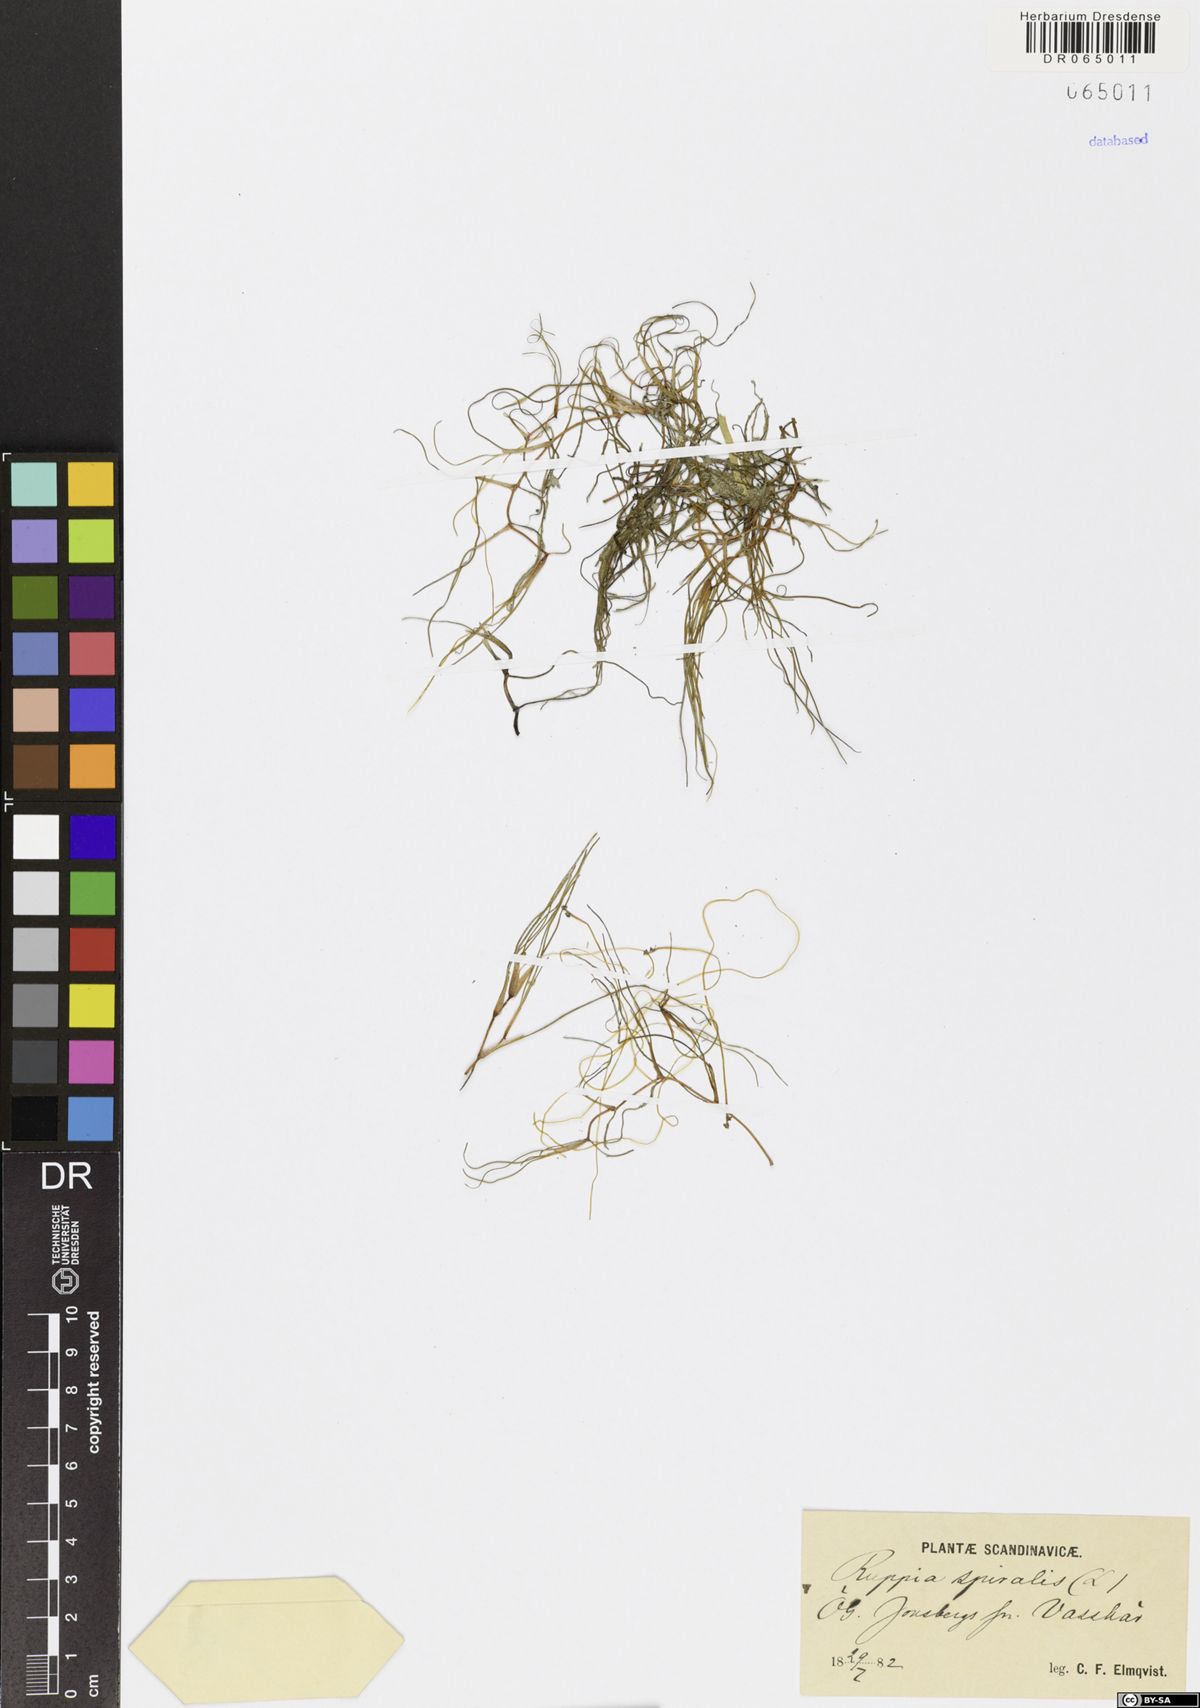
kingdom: Plantae
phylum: Tracheophyta
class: Liliopsida
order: Alismatales
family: Ruppiaceae
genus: Ruppia
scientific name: Ruppia cirrhosa
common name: Spiral tasselweed
